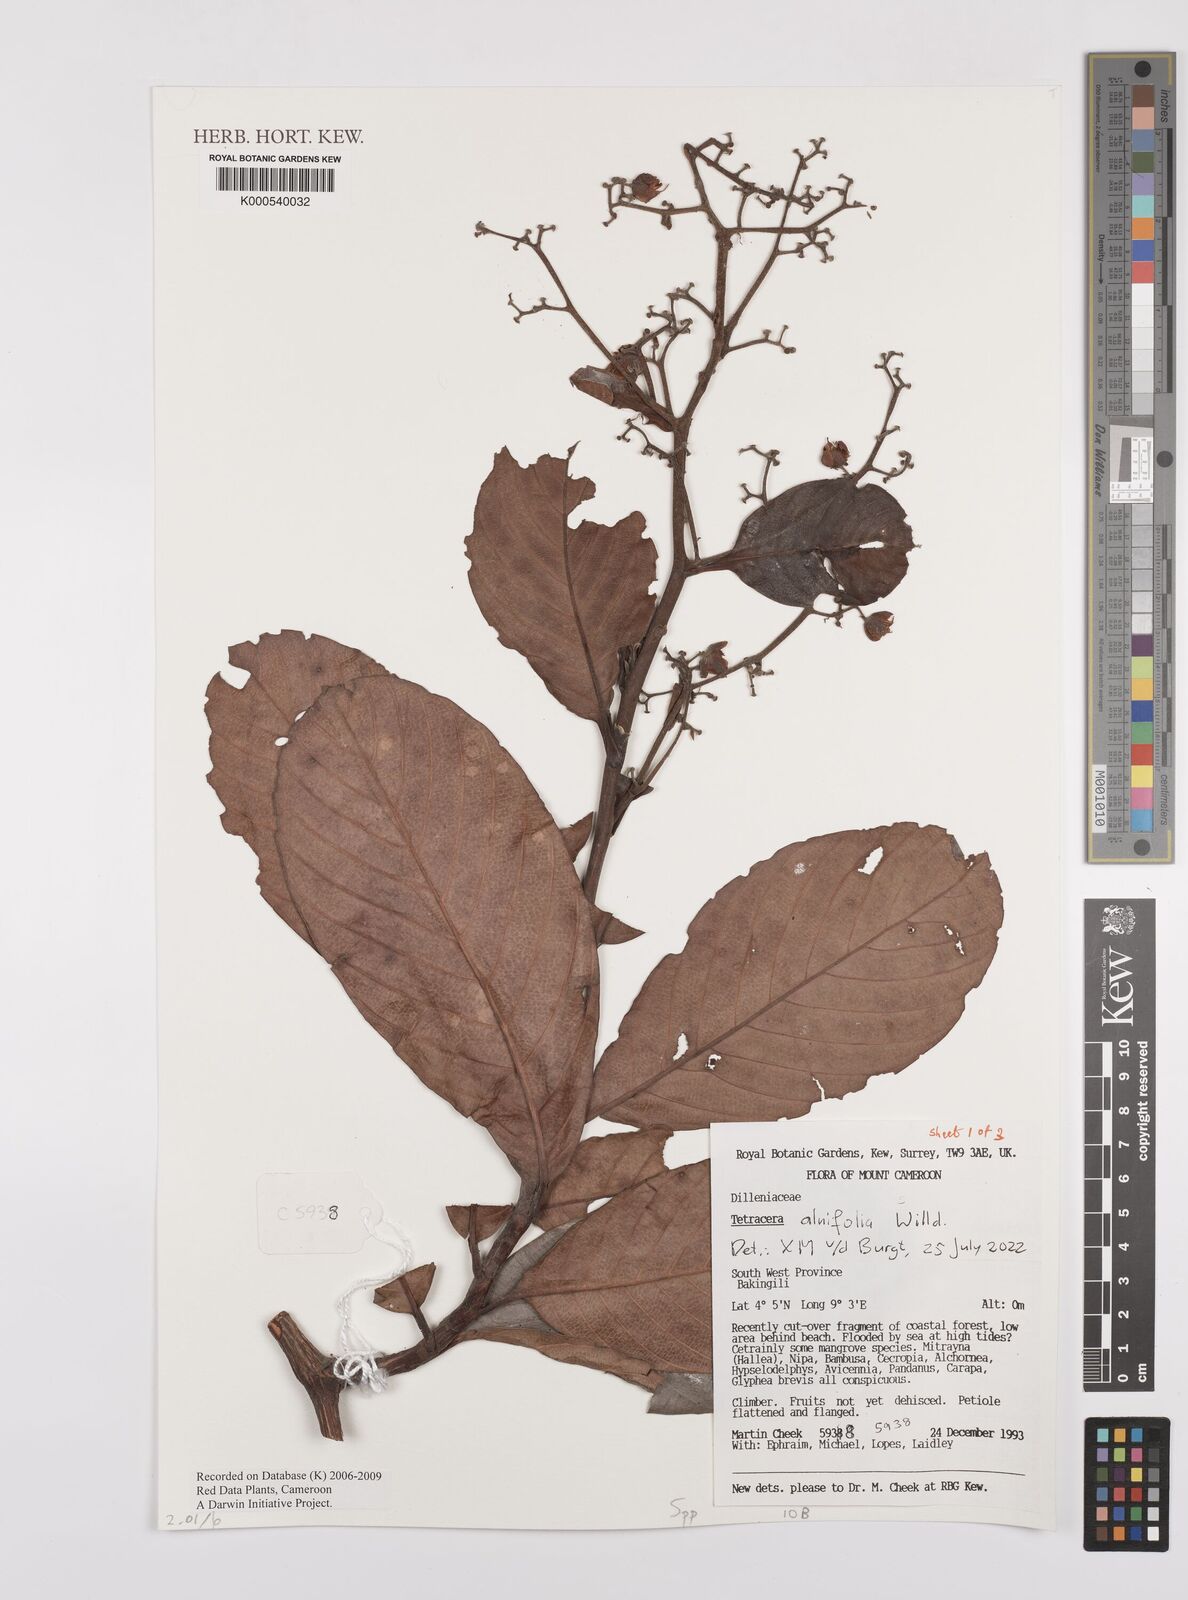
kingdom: Plantae
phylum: Tracheophyta
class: Magnoliopsida
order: Dilleniales
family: Dilleniaceae
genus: Tetracera
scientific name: Tetracera
